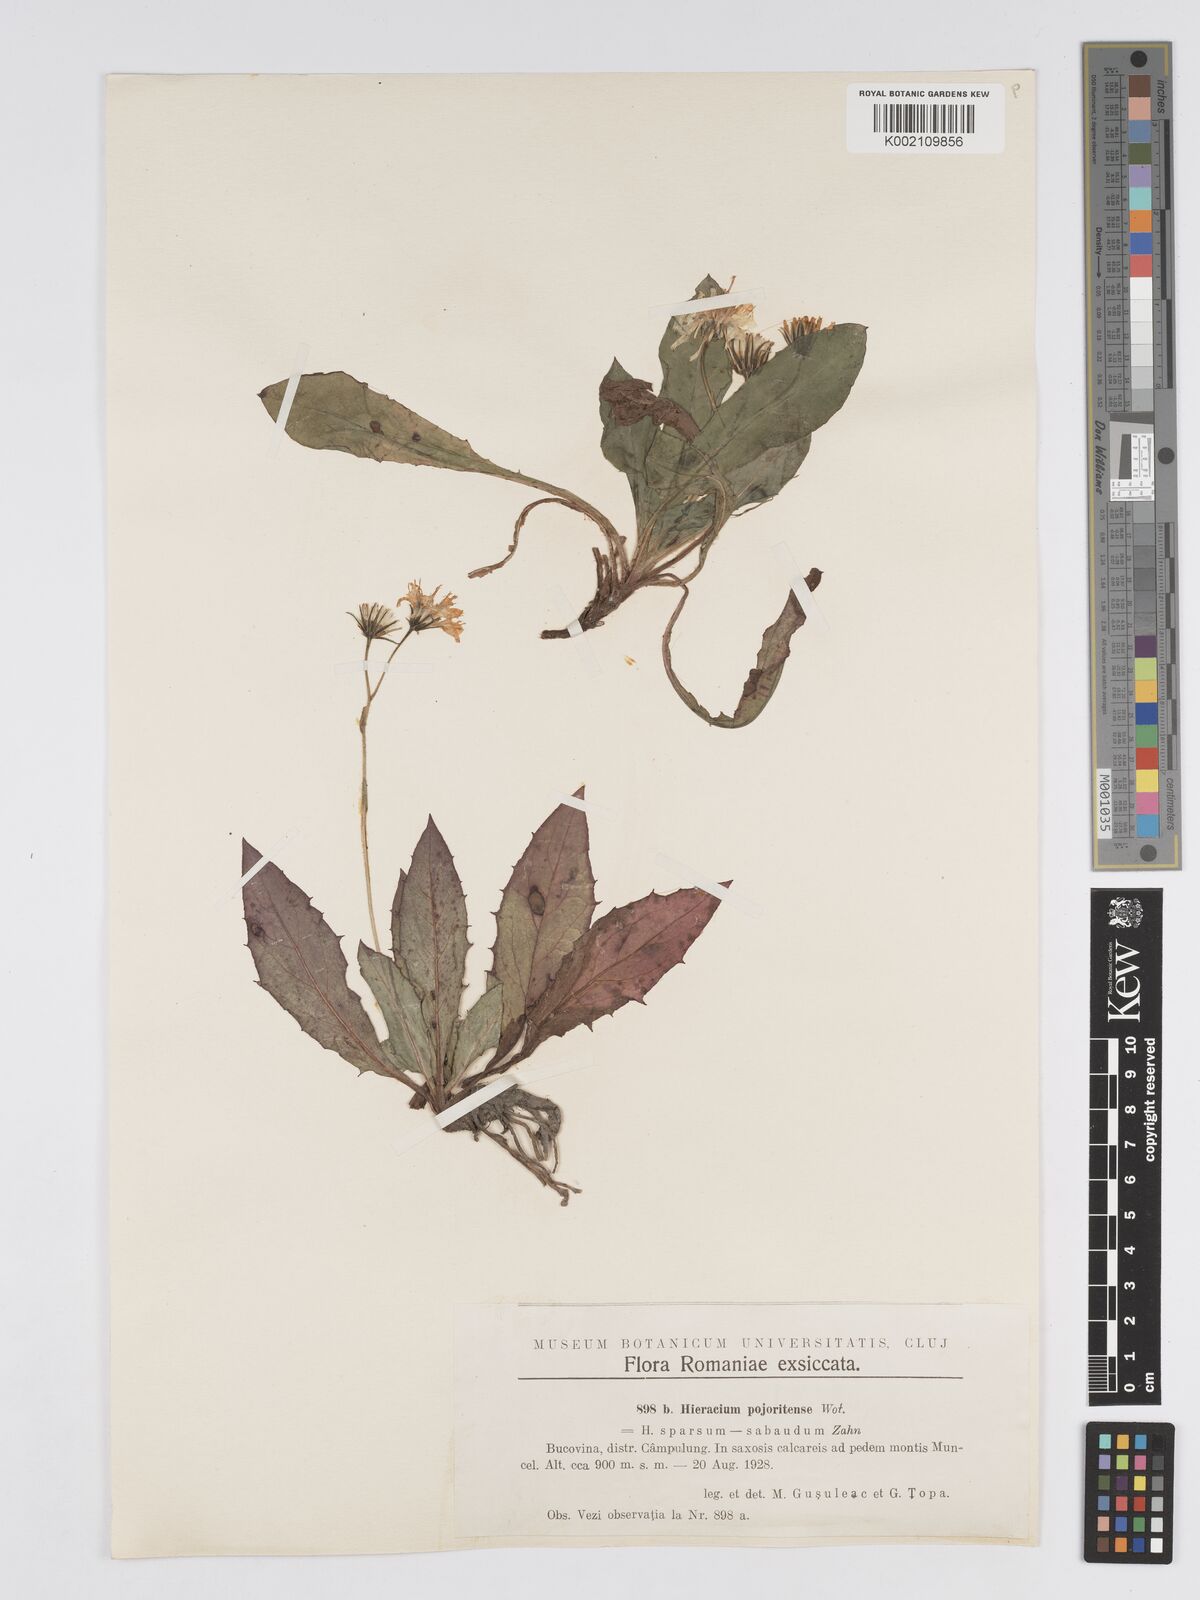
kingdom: Plantae
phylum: Tracheophyta
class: Magnoliopsida
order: Asterales
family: Asteraceae
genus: Hieracium
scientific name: Hieracium pojoritense
